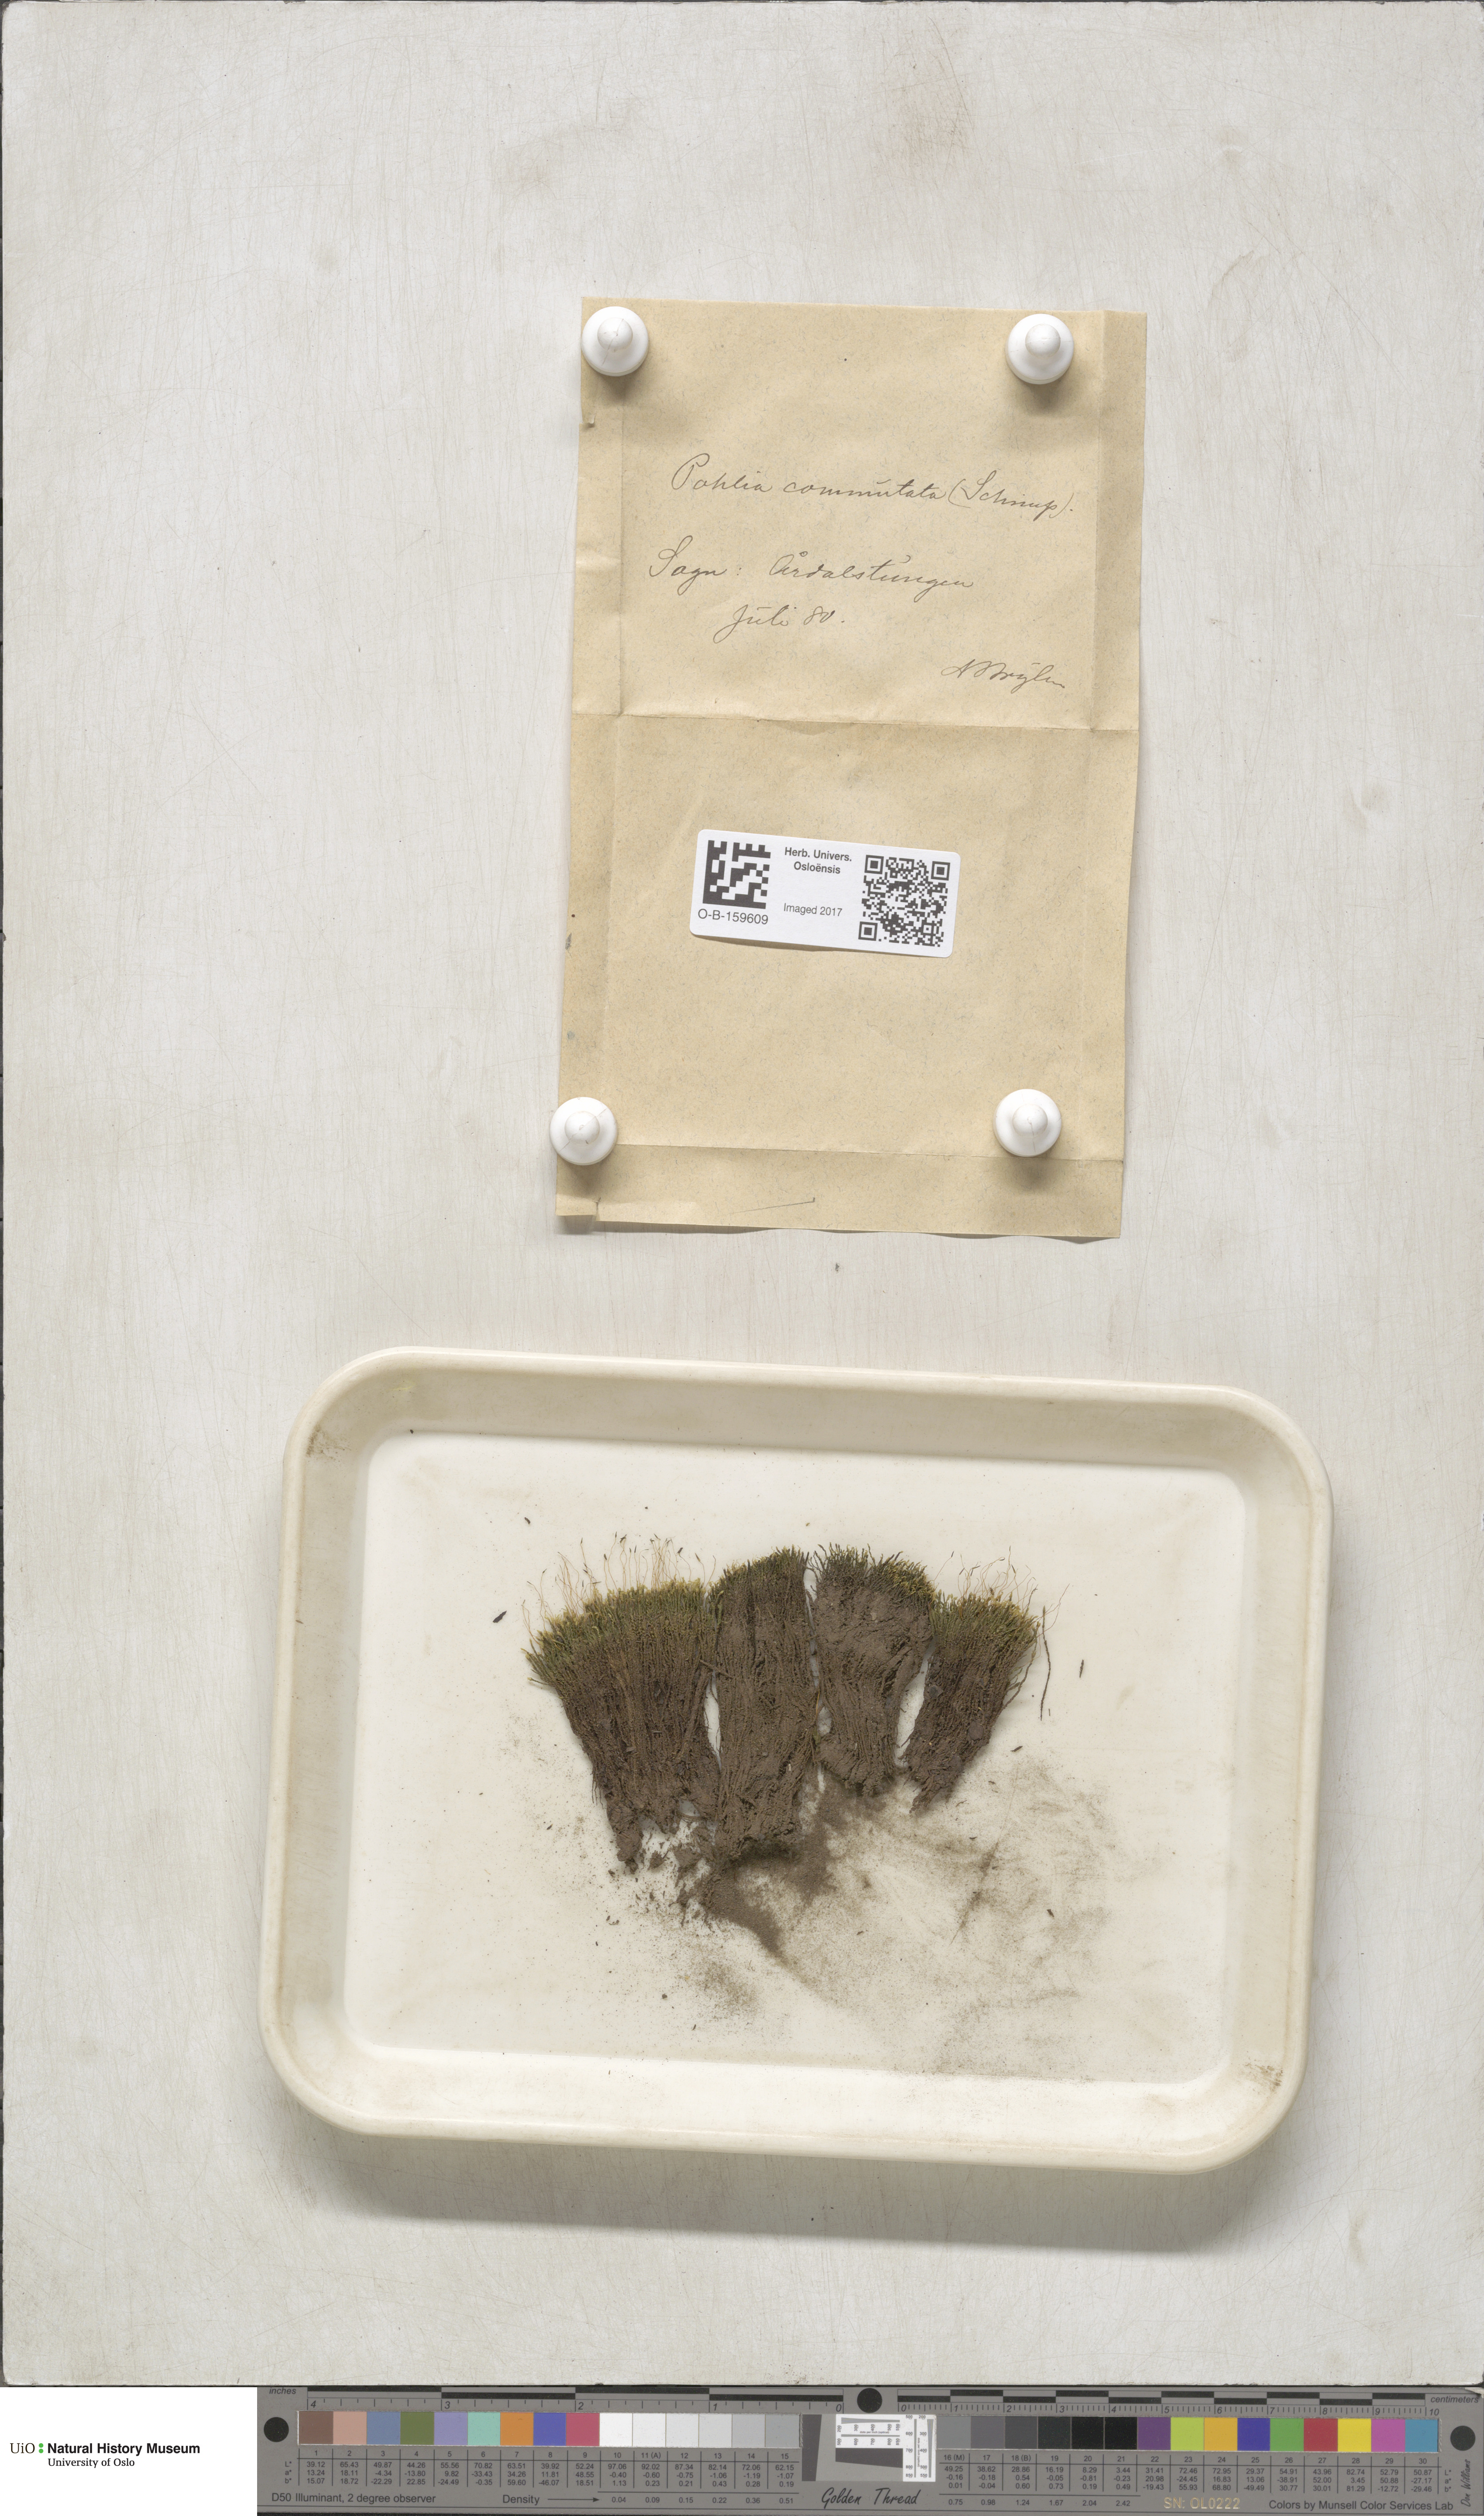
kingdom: Plantae
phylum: Bryophyta
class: Bryopsida
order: Bryales
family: Mniaceae
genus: Pohlia
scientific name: Pohlia drummondii
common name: Drummond's nodding moss
